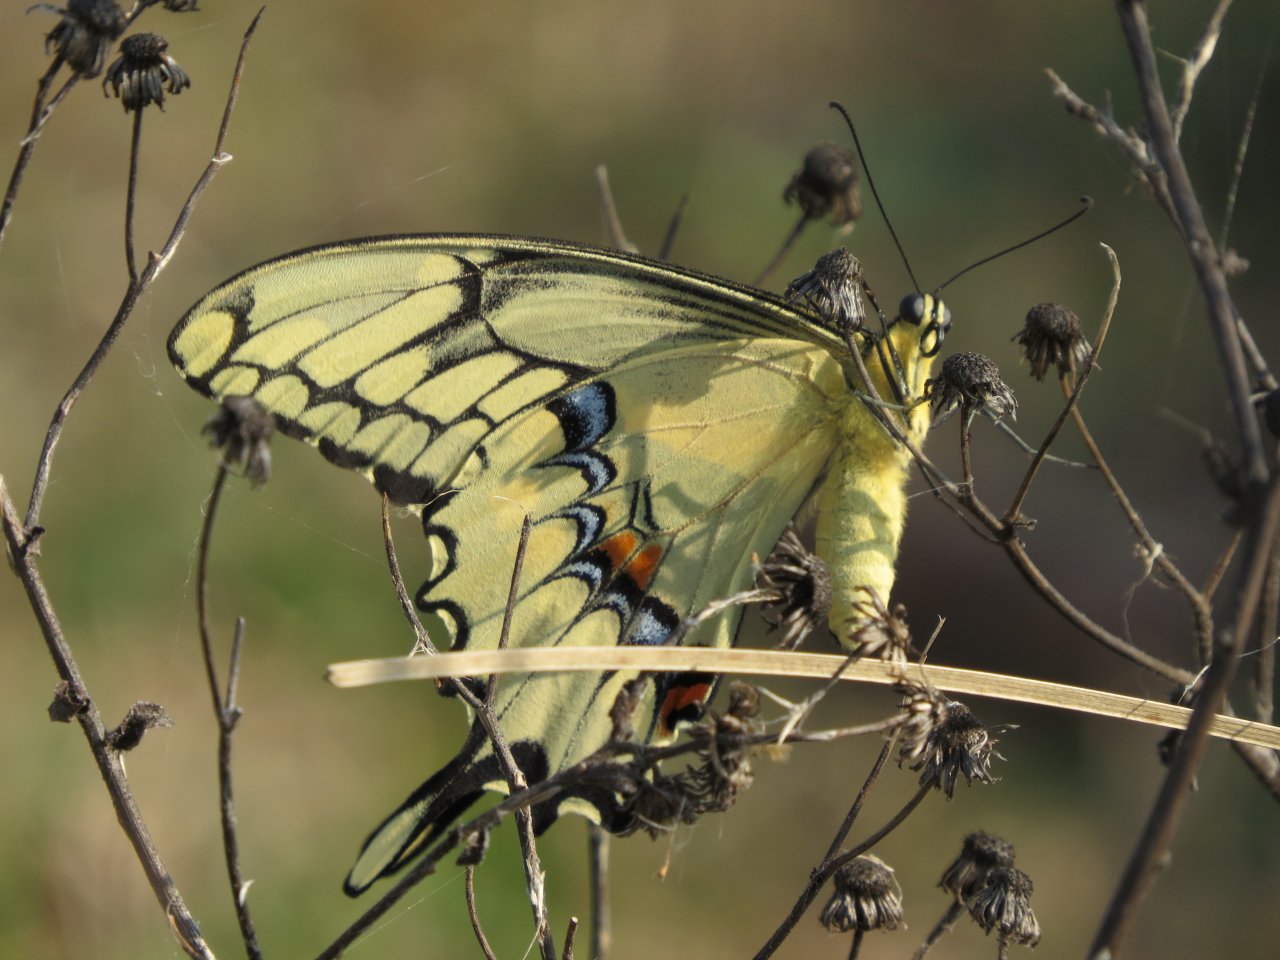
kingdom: Animalia
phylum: Arthropoda
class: Insecta
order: Lepidoptera
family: Papilionidae
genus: Papilio
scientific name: Papilio cresphontes
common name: Eastern Giant Swallowtail
